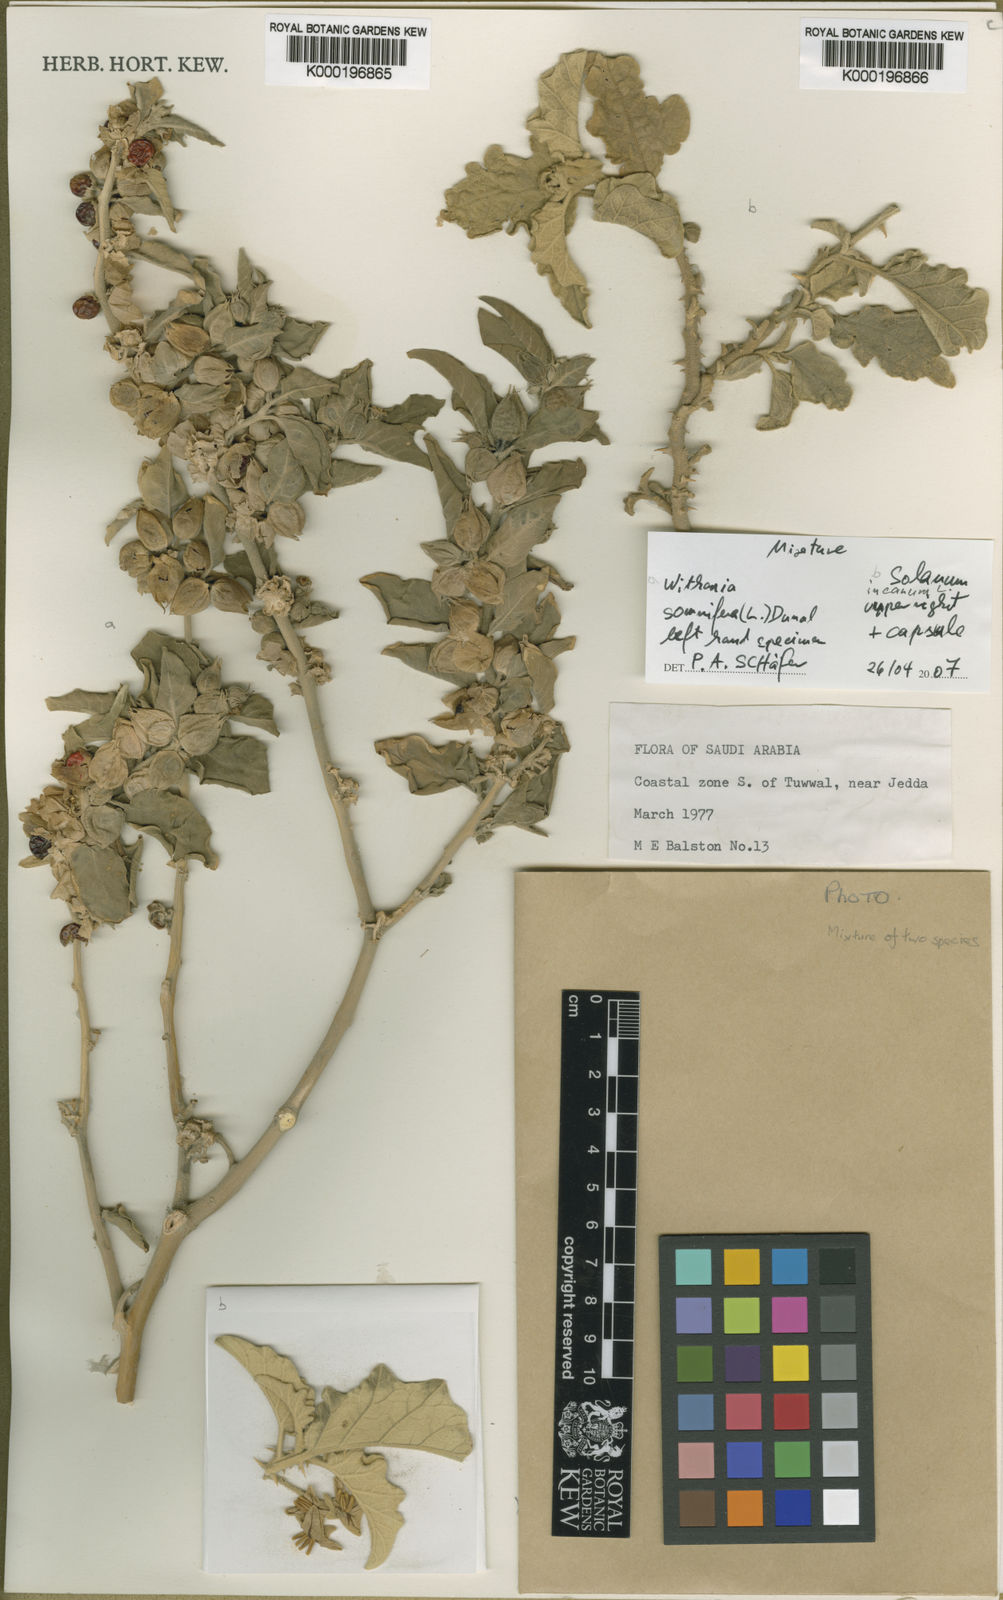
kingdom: Plantae
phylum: Tracheophyta
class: Magnoliopsida
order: Solanales
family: Solanaceae
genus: Withania
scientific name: Withania somnifera
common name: Winter-cherry
